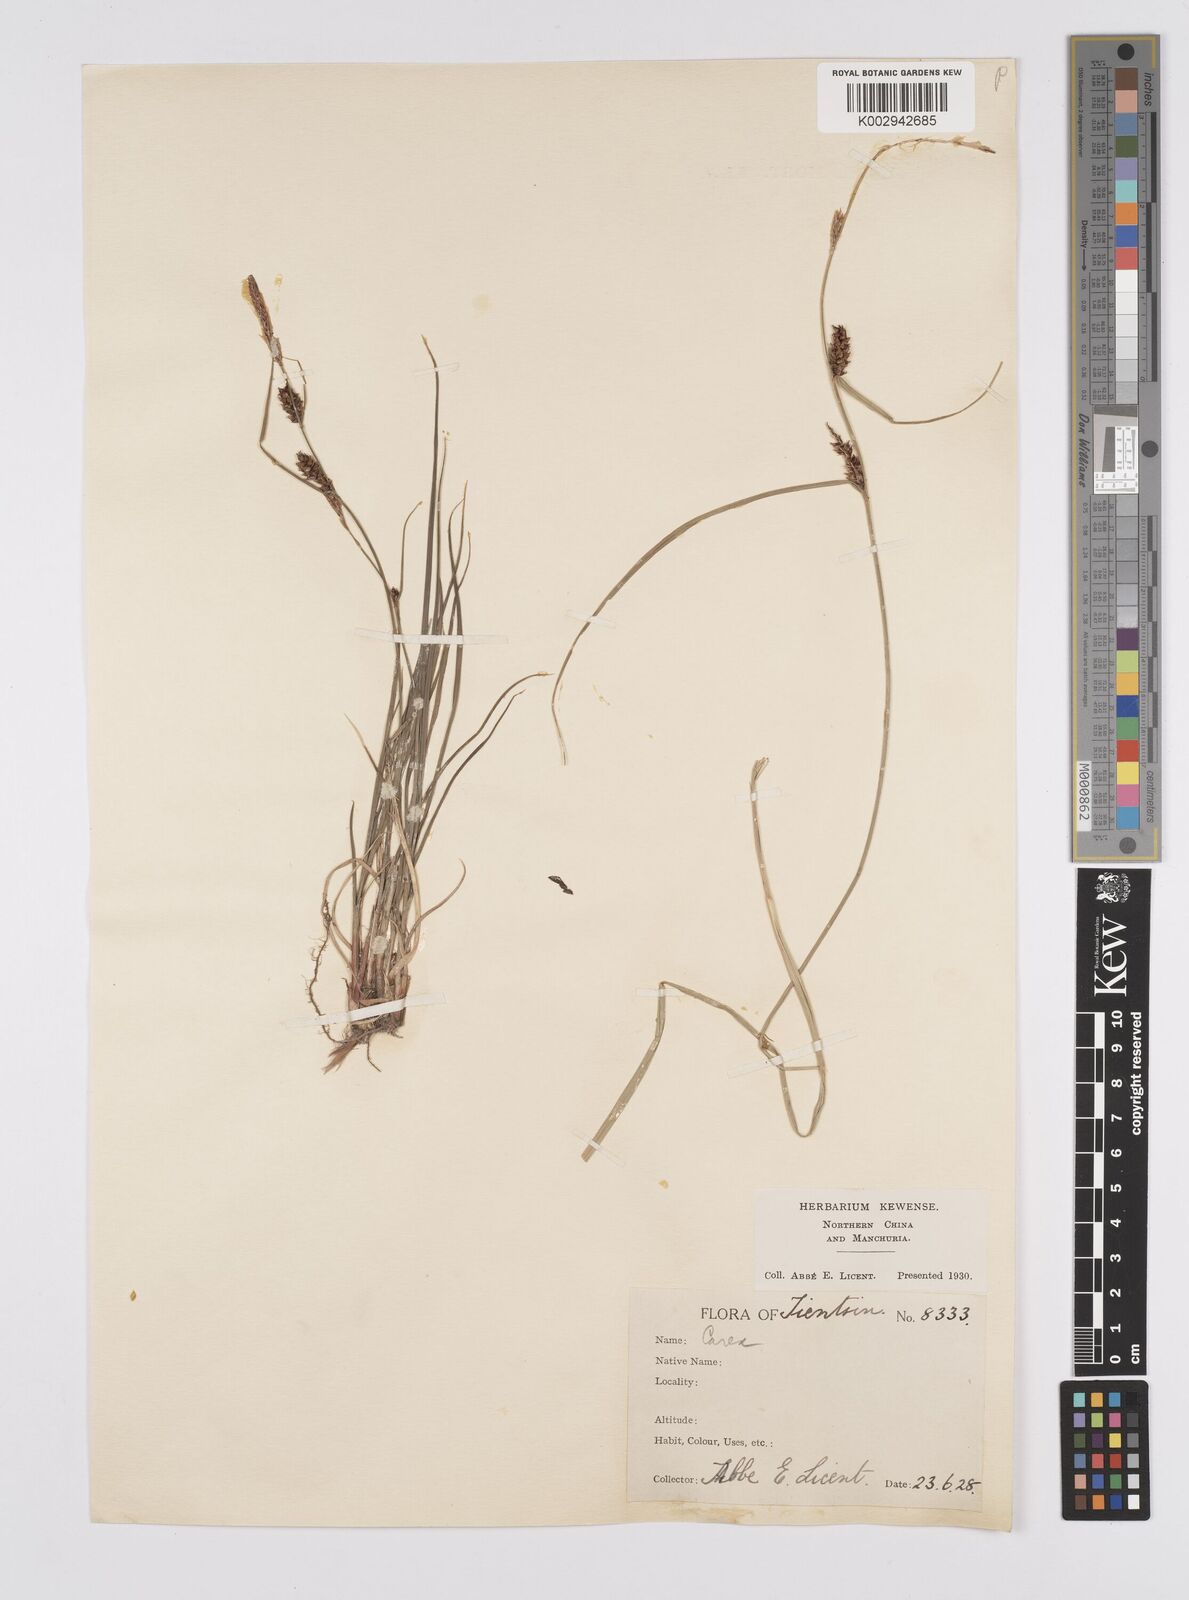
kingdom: Plantae
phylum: Tracheophyta
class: Liliopsida
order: Poales
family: Cyperaceae
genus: Carex
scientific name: Carex melanostachya
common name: Black-spiked sedge
